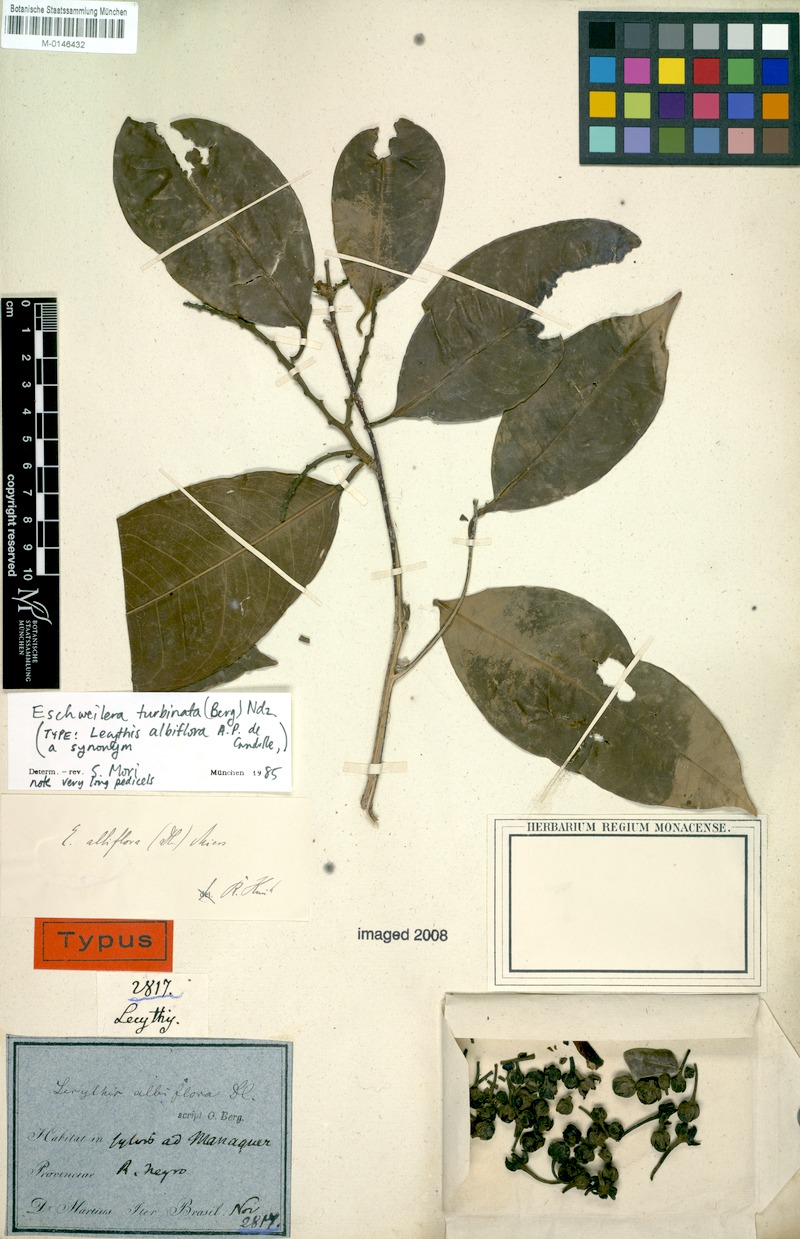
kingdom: Plantae
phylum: Tracheophyta
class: Magnoliopsida
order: Ericales
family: Lecythidaceae
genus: Eschweilera
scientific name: Eschweilera albiflora
